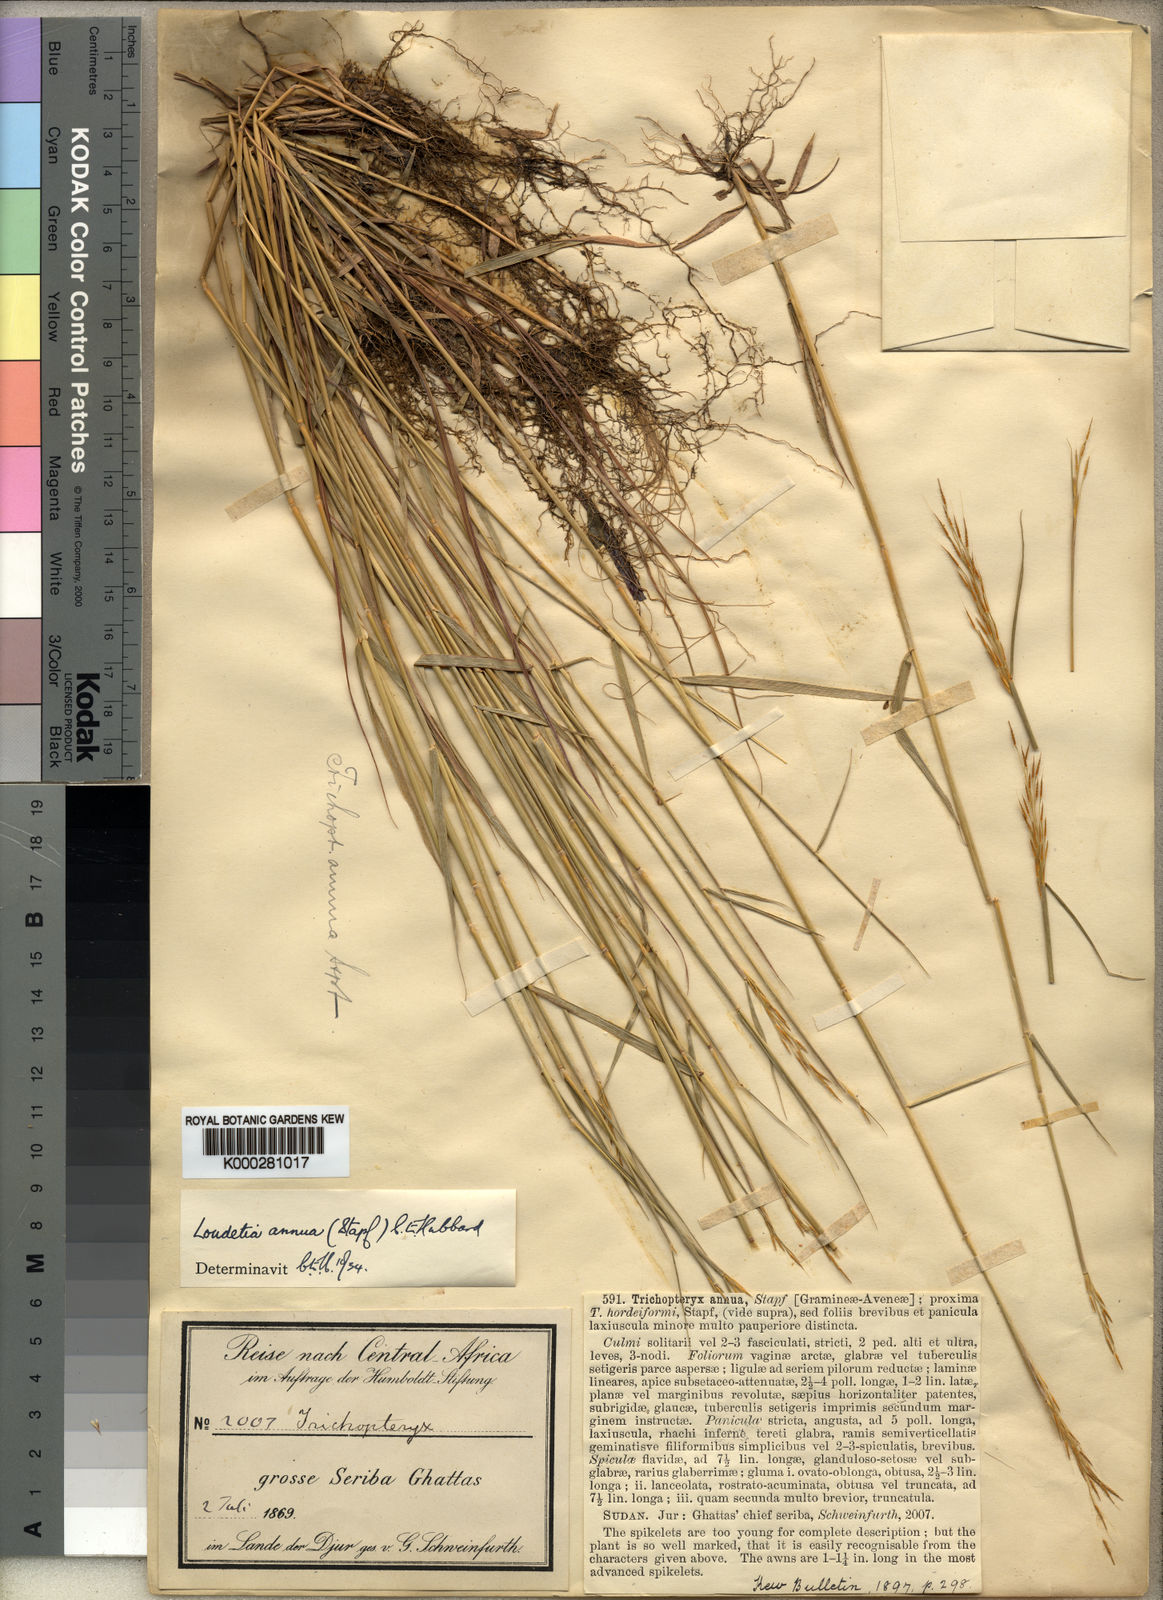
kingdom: Plantae
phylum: Tracheophyta
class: Liliopsida
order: Poales
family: Poaceae
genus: Loudetia
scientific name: Loudetia annua
